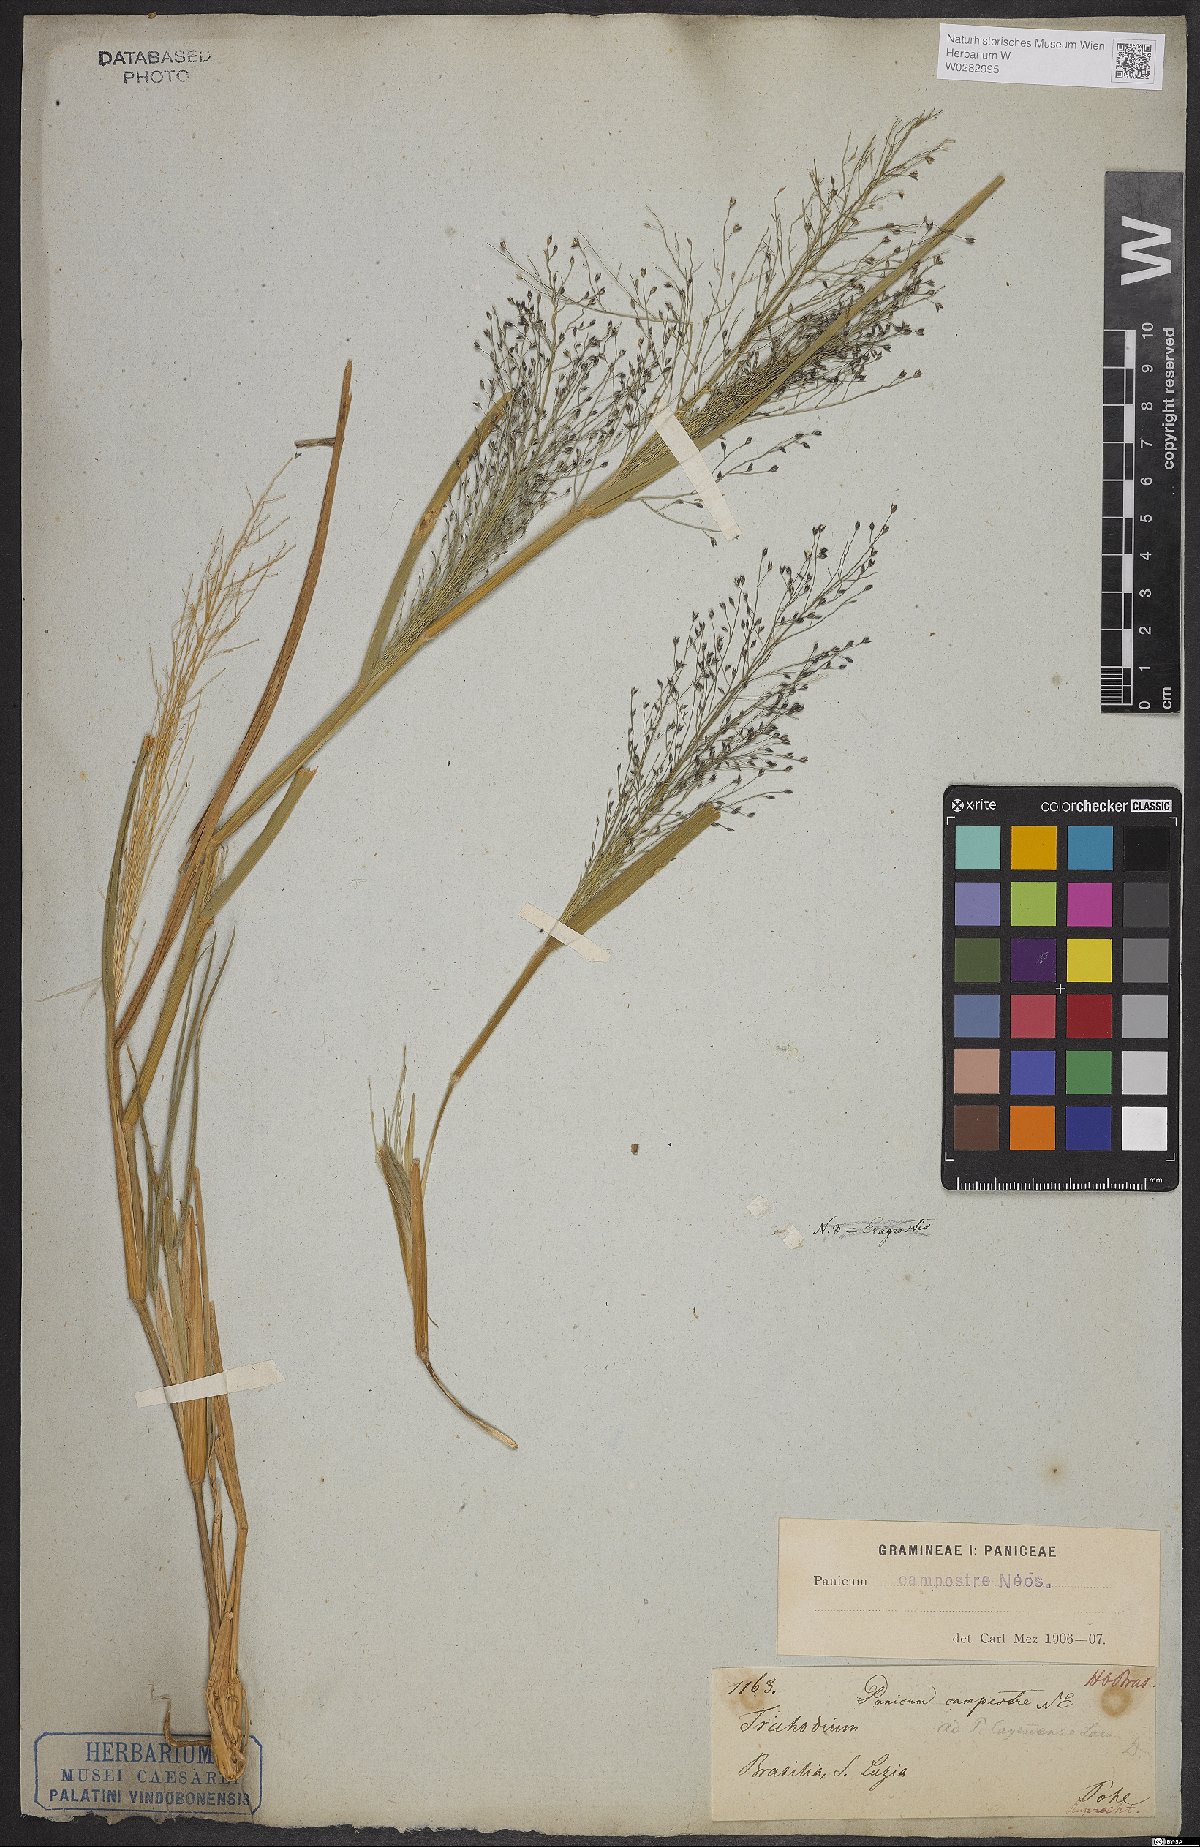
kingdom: Plantae
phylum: Tracheophyta
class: Liliopsida
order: Poales
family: Poaceae
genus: Panicum
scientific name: Panicum peladoense
